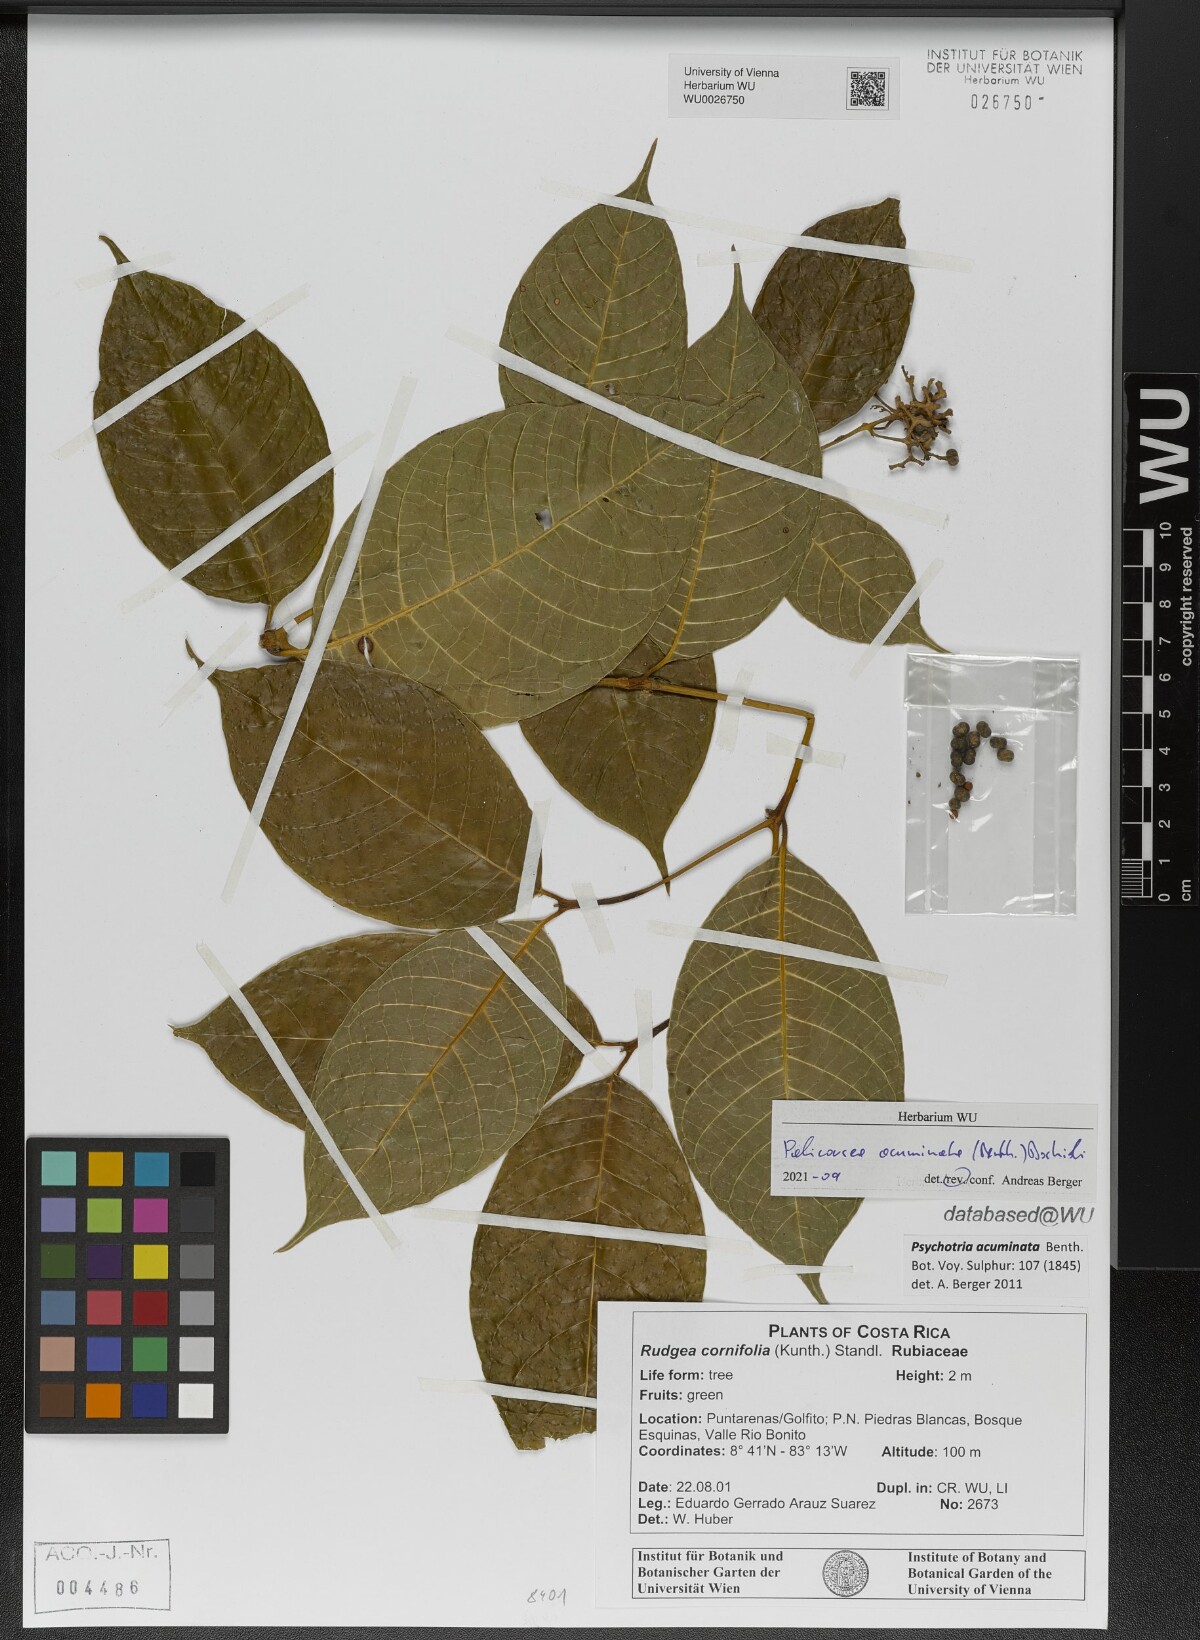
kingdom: Plantae
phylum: Tracheophyta
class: Magnoliopsida
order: Gentianales
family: Rubiaceae
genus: Palicourea
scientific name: Palicourea acuminata
